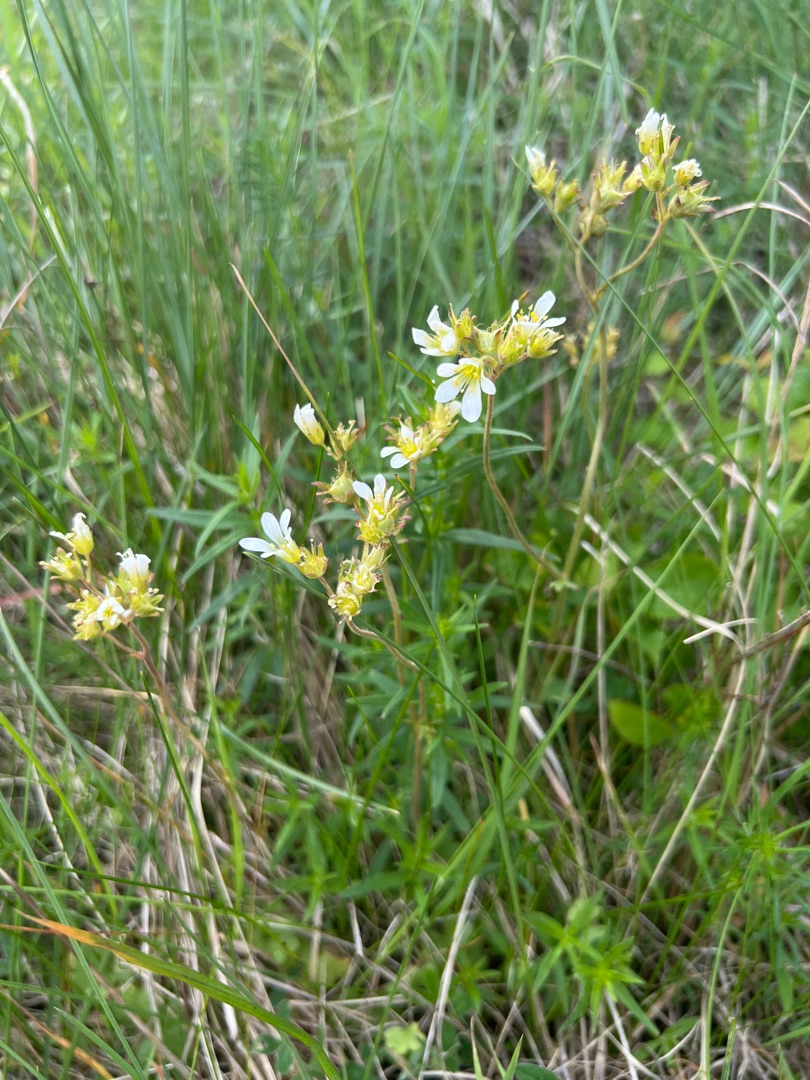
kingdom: Plantae
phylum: Tracheophyta
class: Magnoliopsida
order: Saxifragales
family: Saxifragaceae
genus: Saxifraga
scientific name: Saxifraga granulata
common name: Kornet stenbræk
